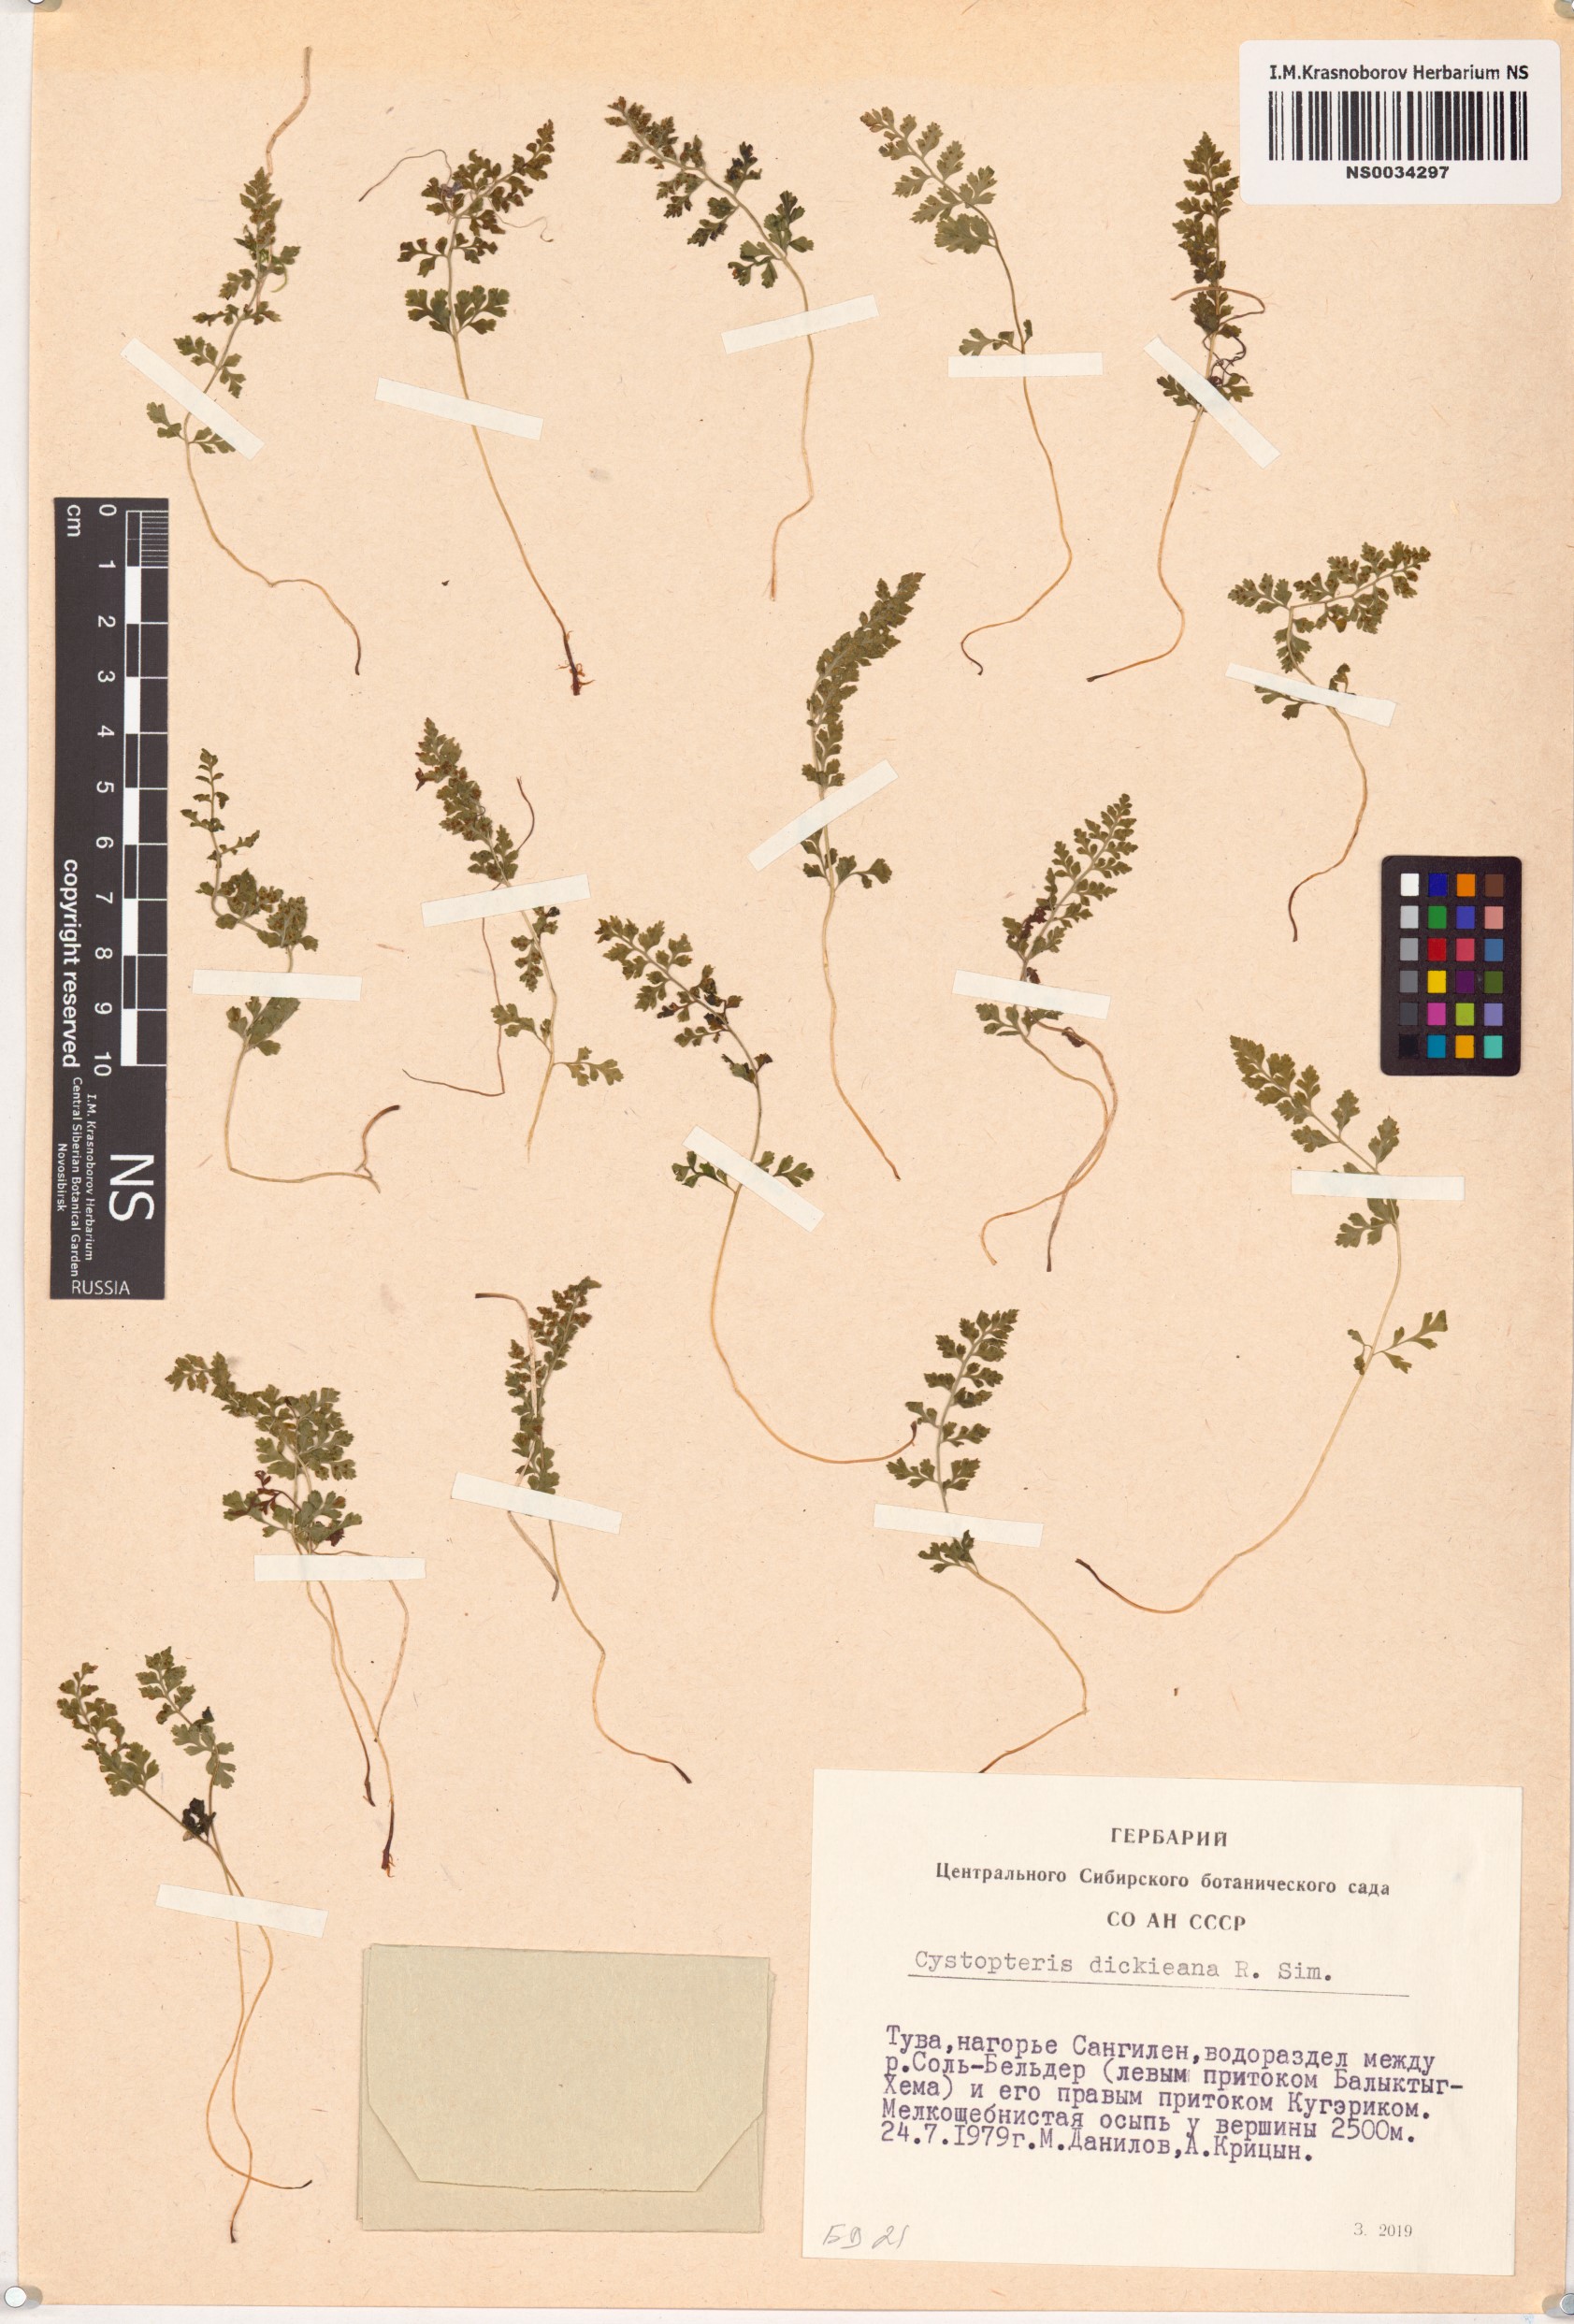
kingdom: Plantae
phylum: Tracheophyta
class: Polypodiopsida
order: Polypodiales
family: Cystopteridaceae
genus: Cystopteris
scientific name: Cystopteris dickieana
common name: Dickie's bladder-fern
